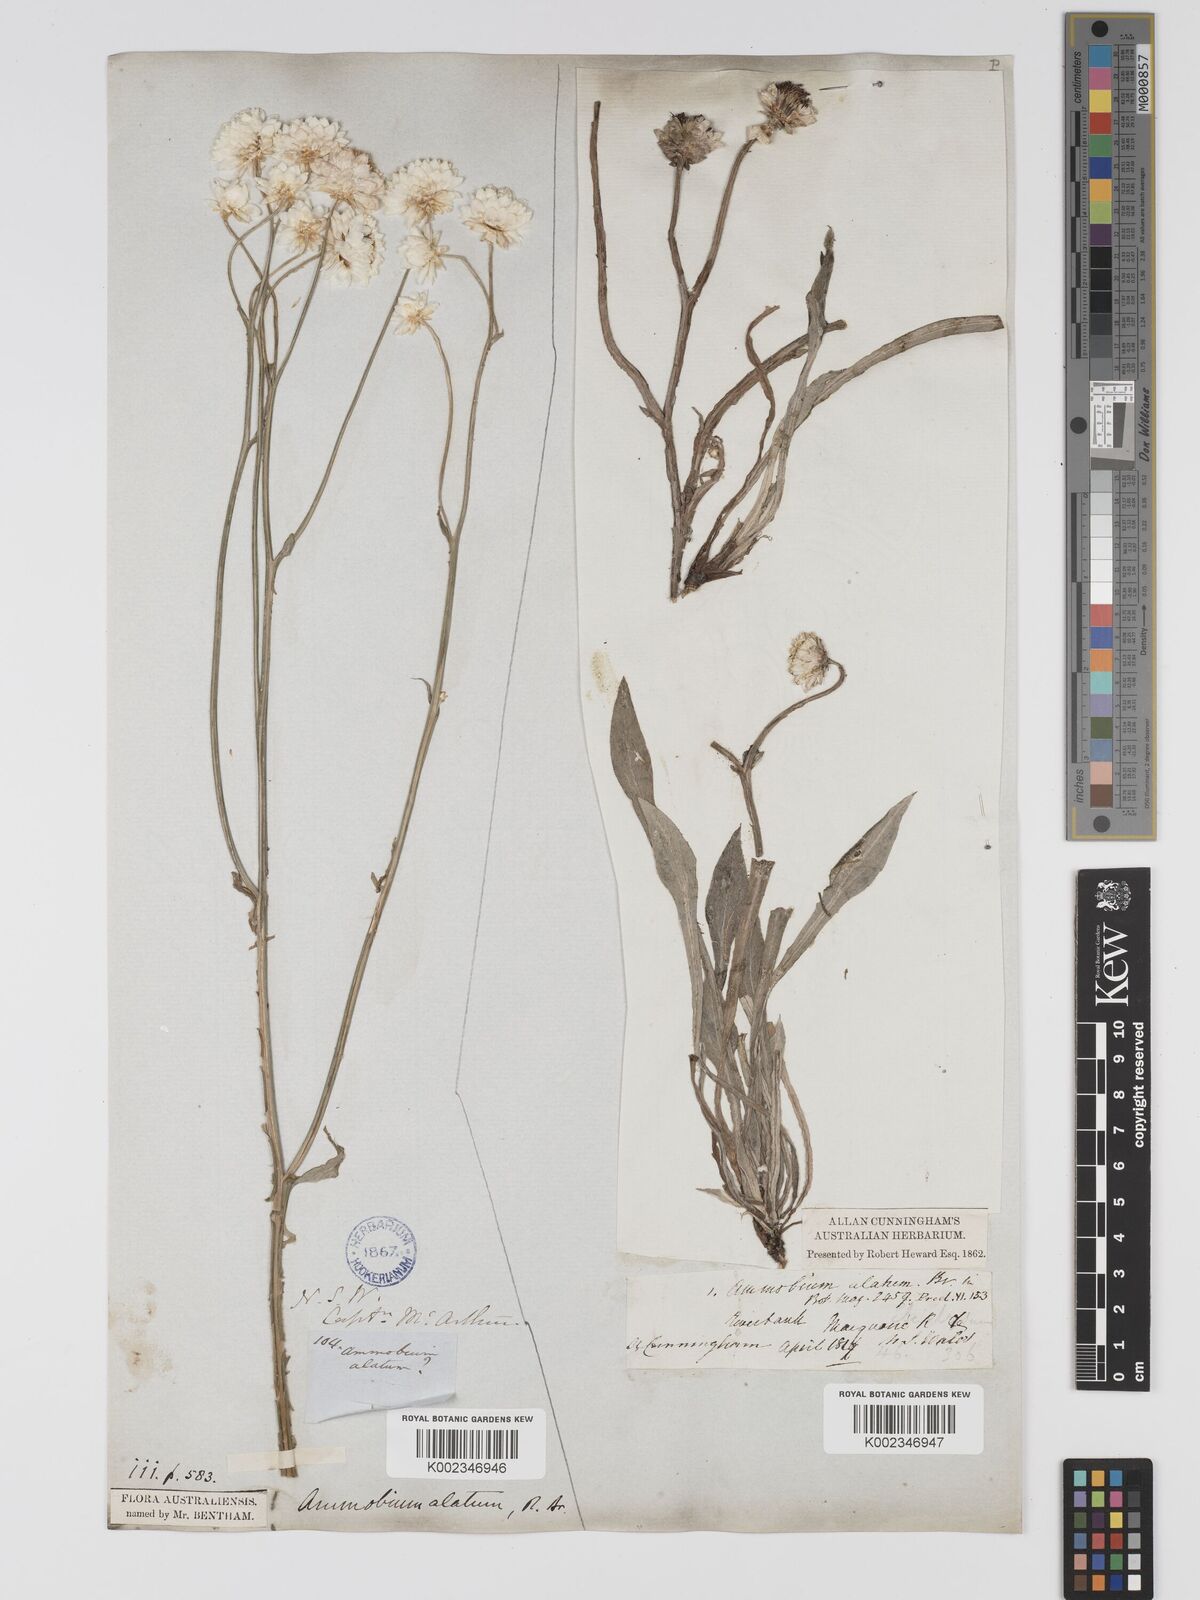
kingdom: Plantae
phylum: Tracheophyta
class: Magnoliopsida
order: Asterales
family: Asteraceae
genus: Ammobium
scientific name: Ammobium alatum
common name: Winged everlasting
